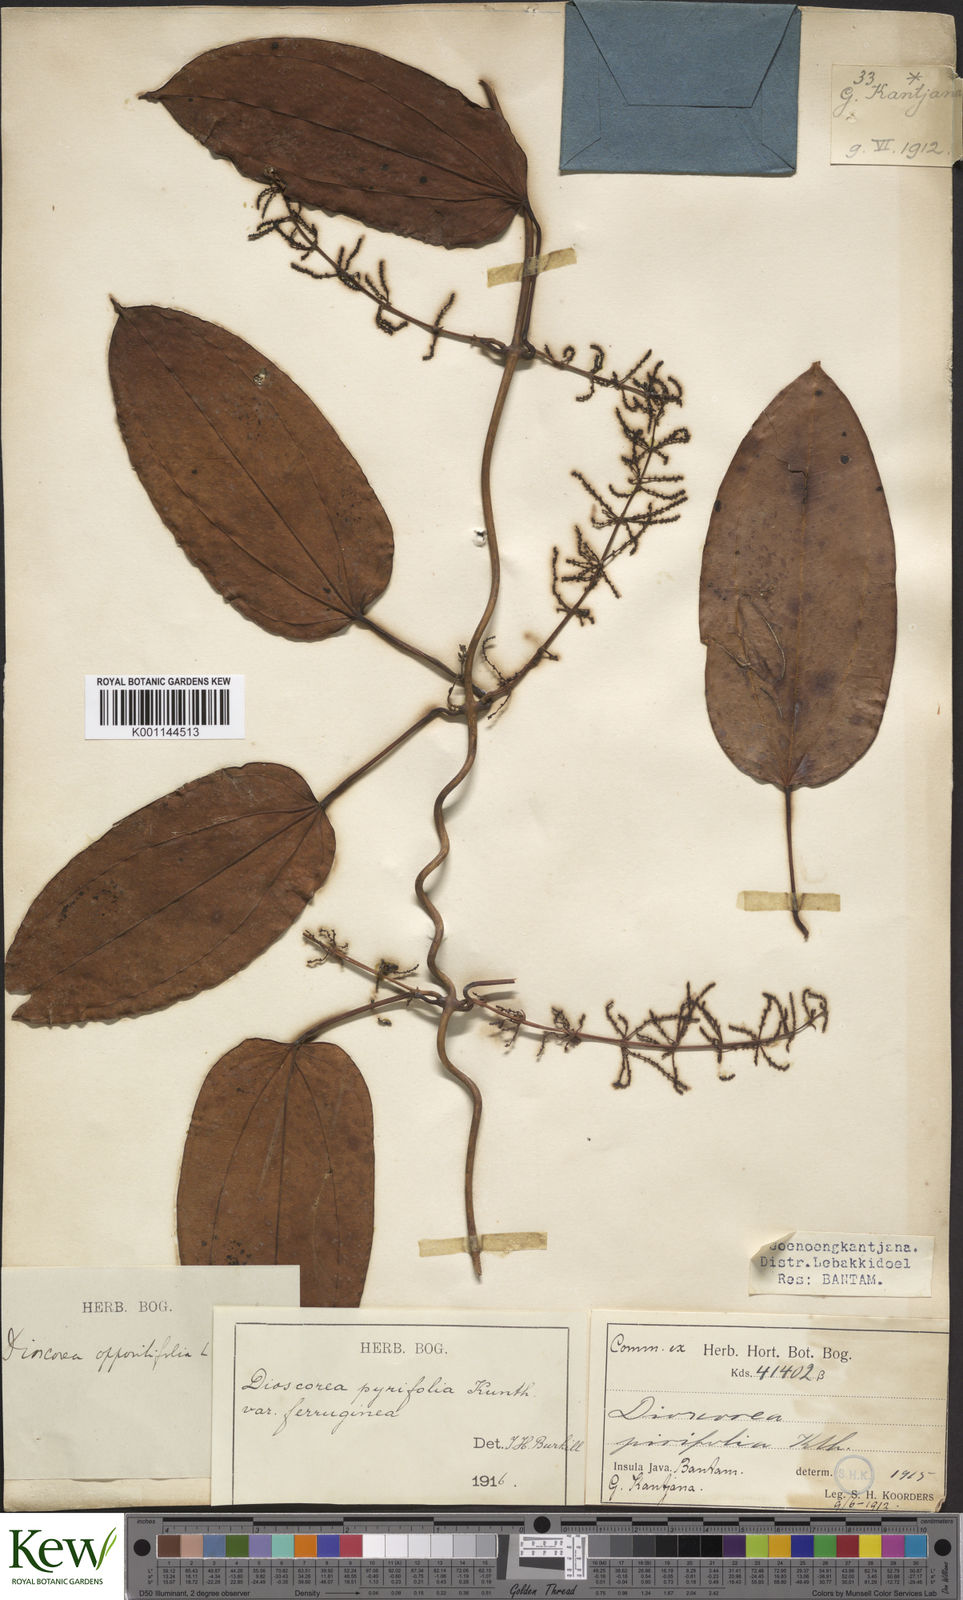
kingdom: Plantae
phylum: Tracheophyta
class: Liliopsida
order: Dioscoreales
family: Dioscoreaceae
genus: Dioscorea
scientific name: Dioscorea pyrifolia
